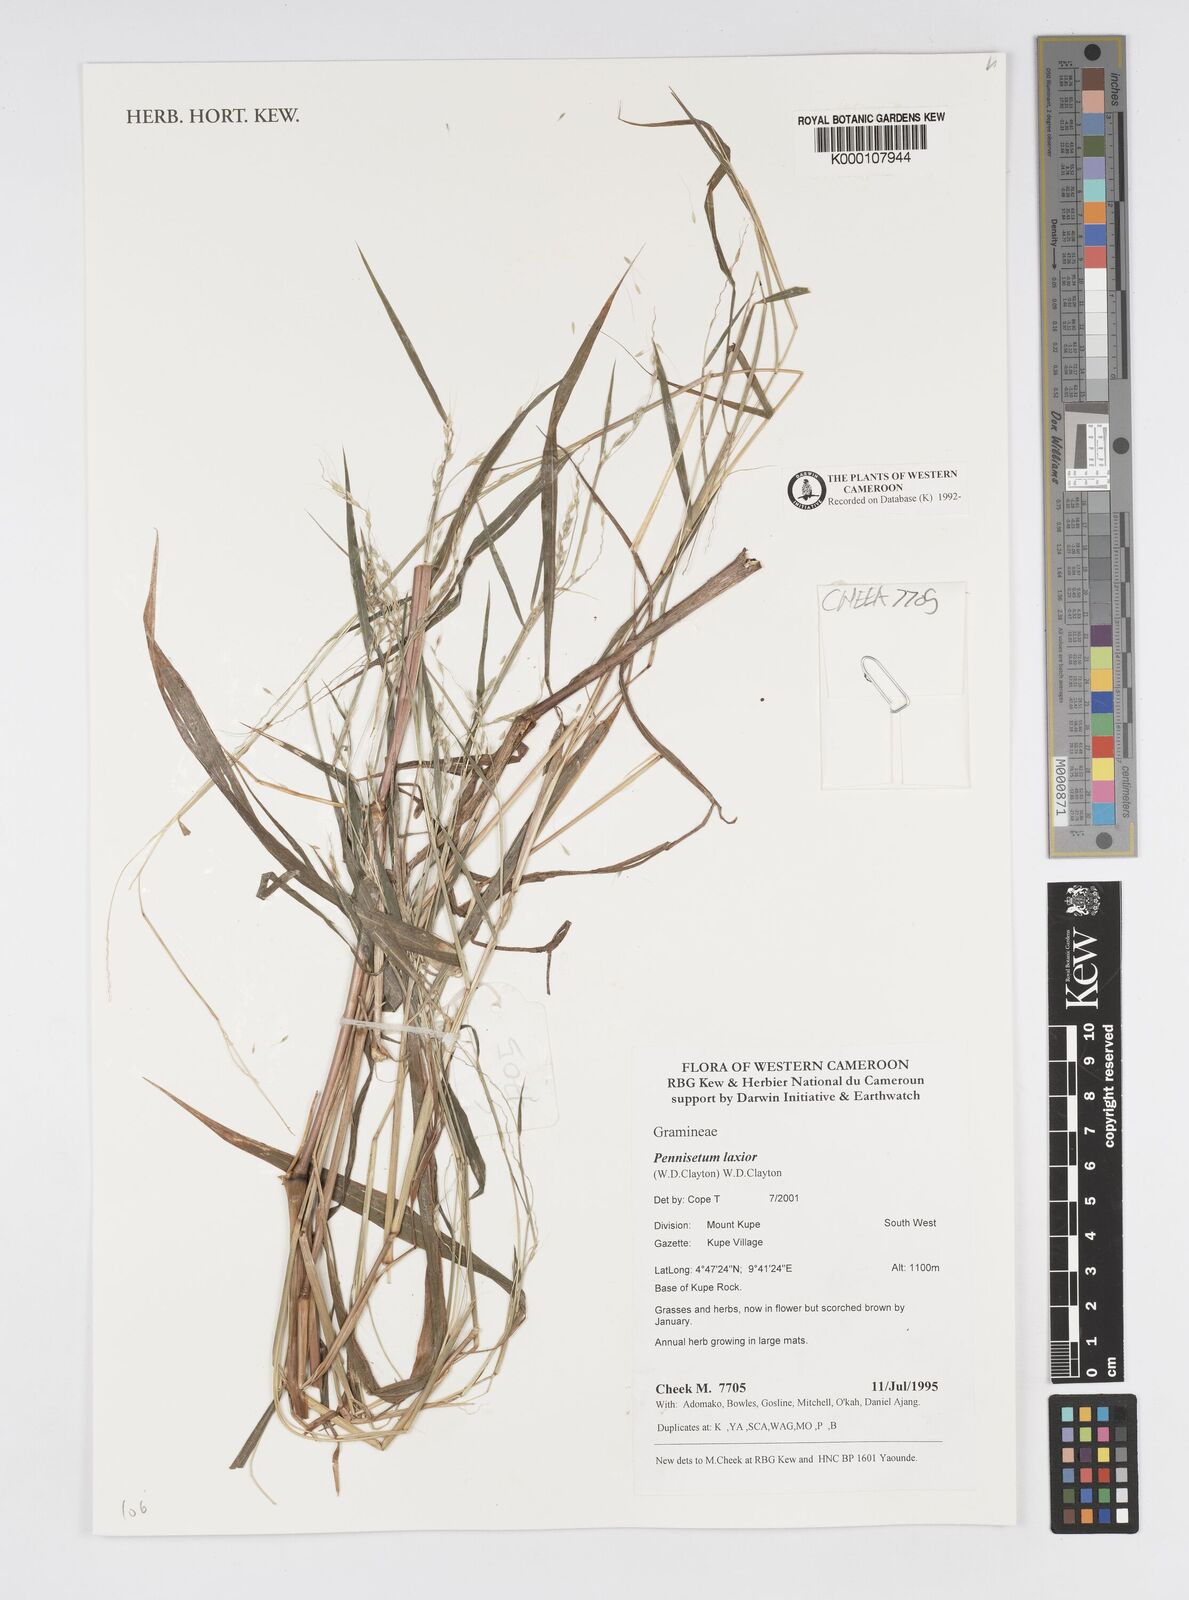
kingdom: Plantae
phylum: Tracheophyta
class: Liliopsida
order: Poales
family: Poaceae
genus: Cenchrus
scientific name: Cenchrus Pennisetum spec
